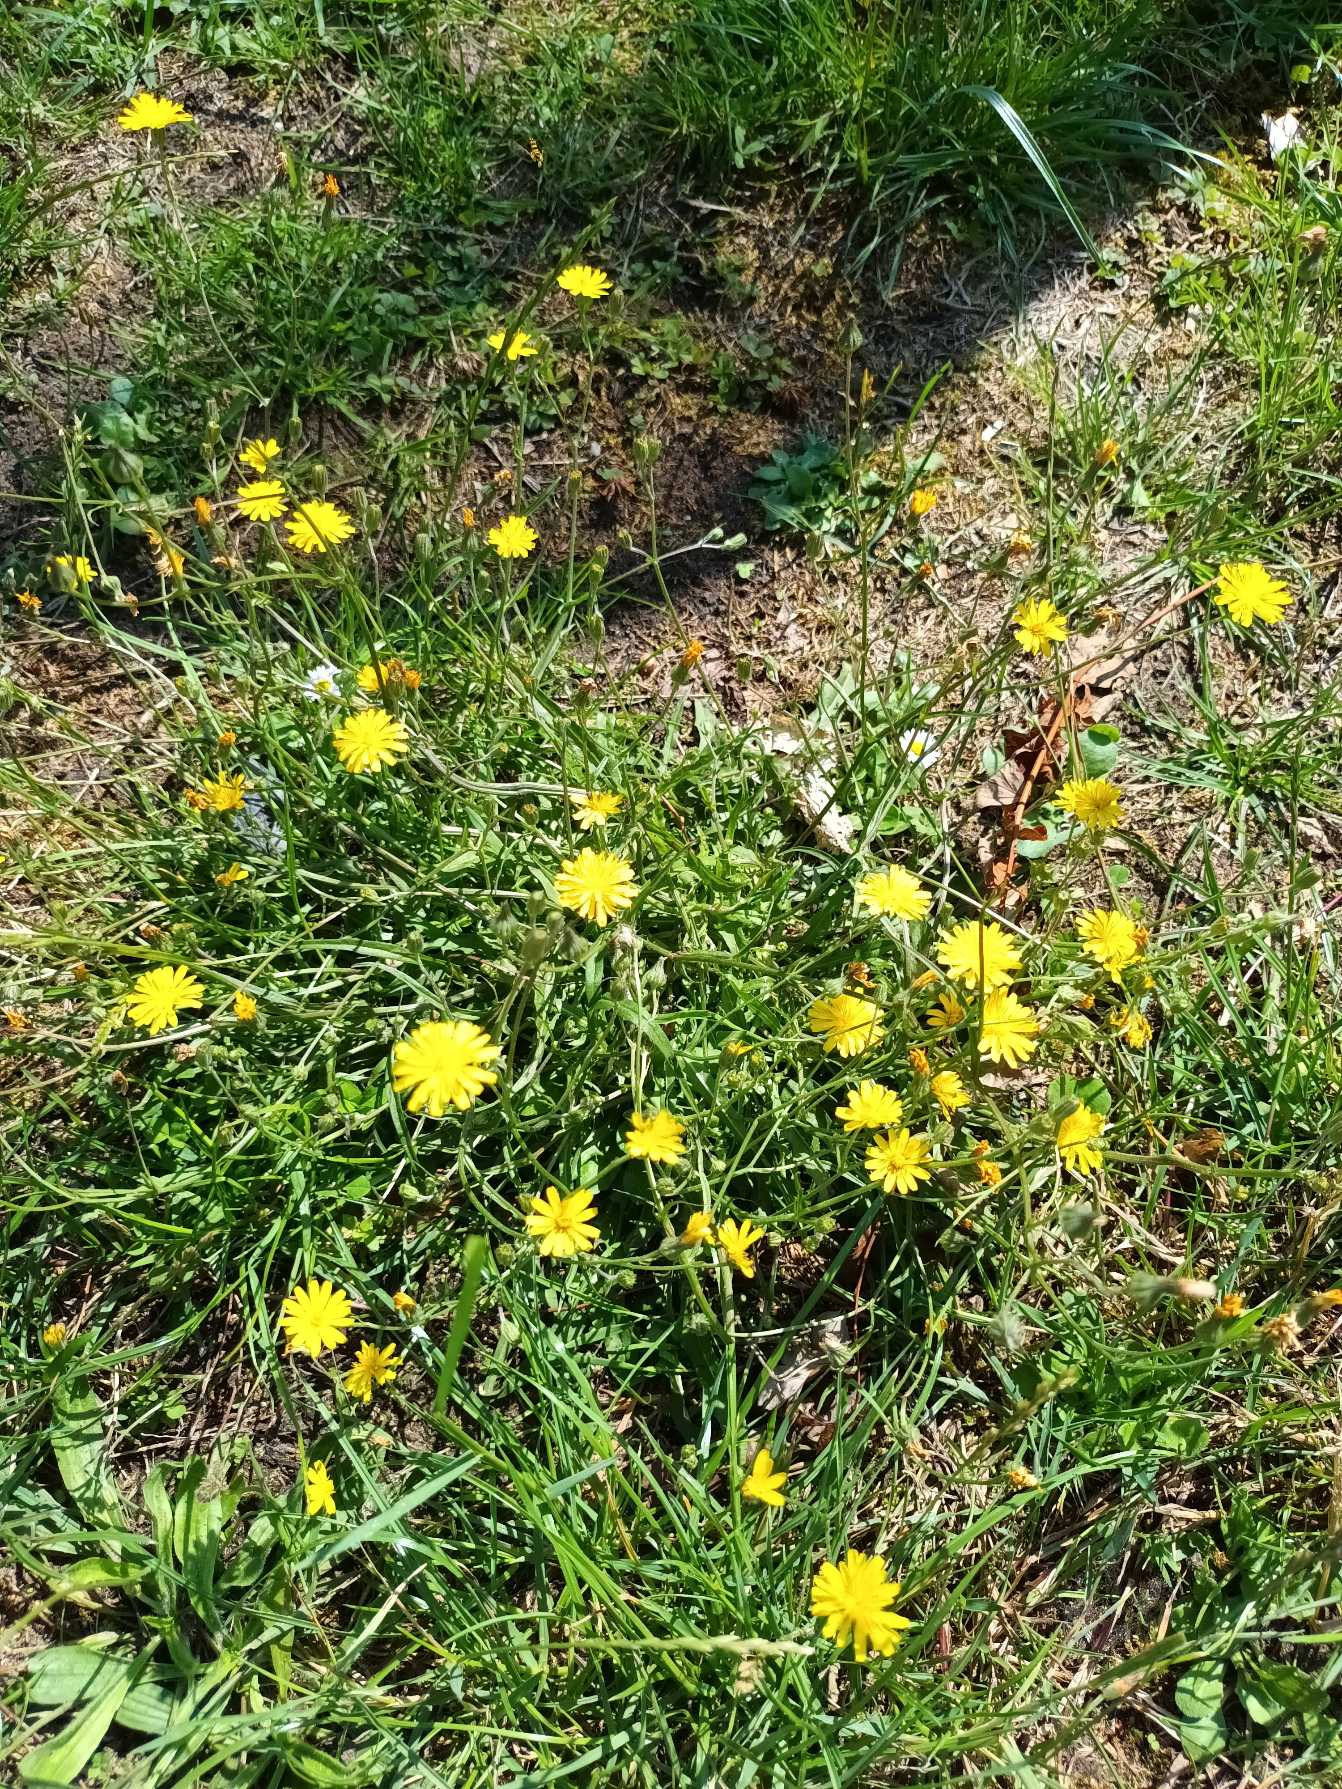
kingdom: Plantae
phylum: Tracheophyta
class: Magnoliopsida
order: Asterales
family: Asteraceae
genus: Crepis
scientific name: Crepis capillaris
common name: Grøn høgeskæg
